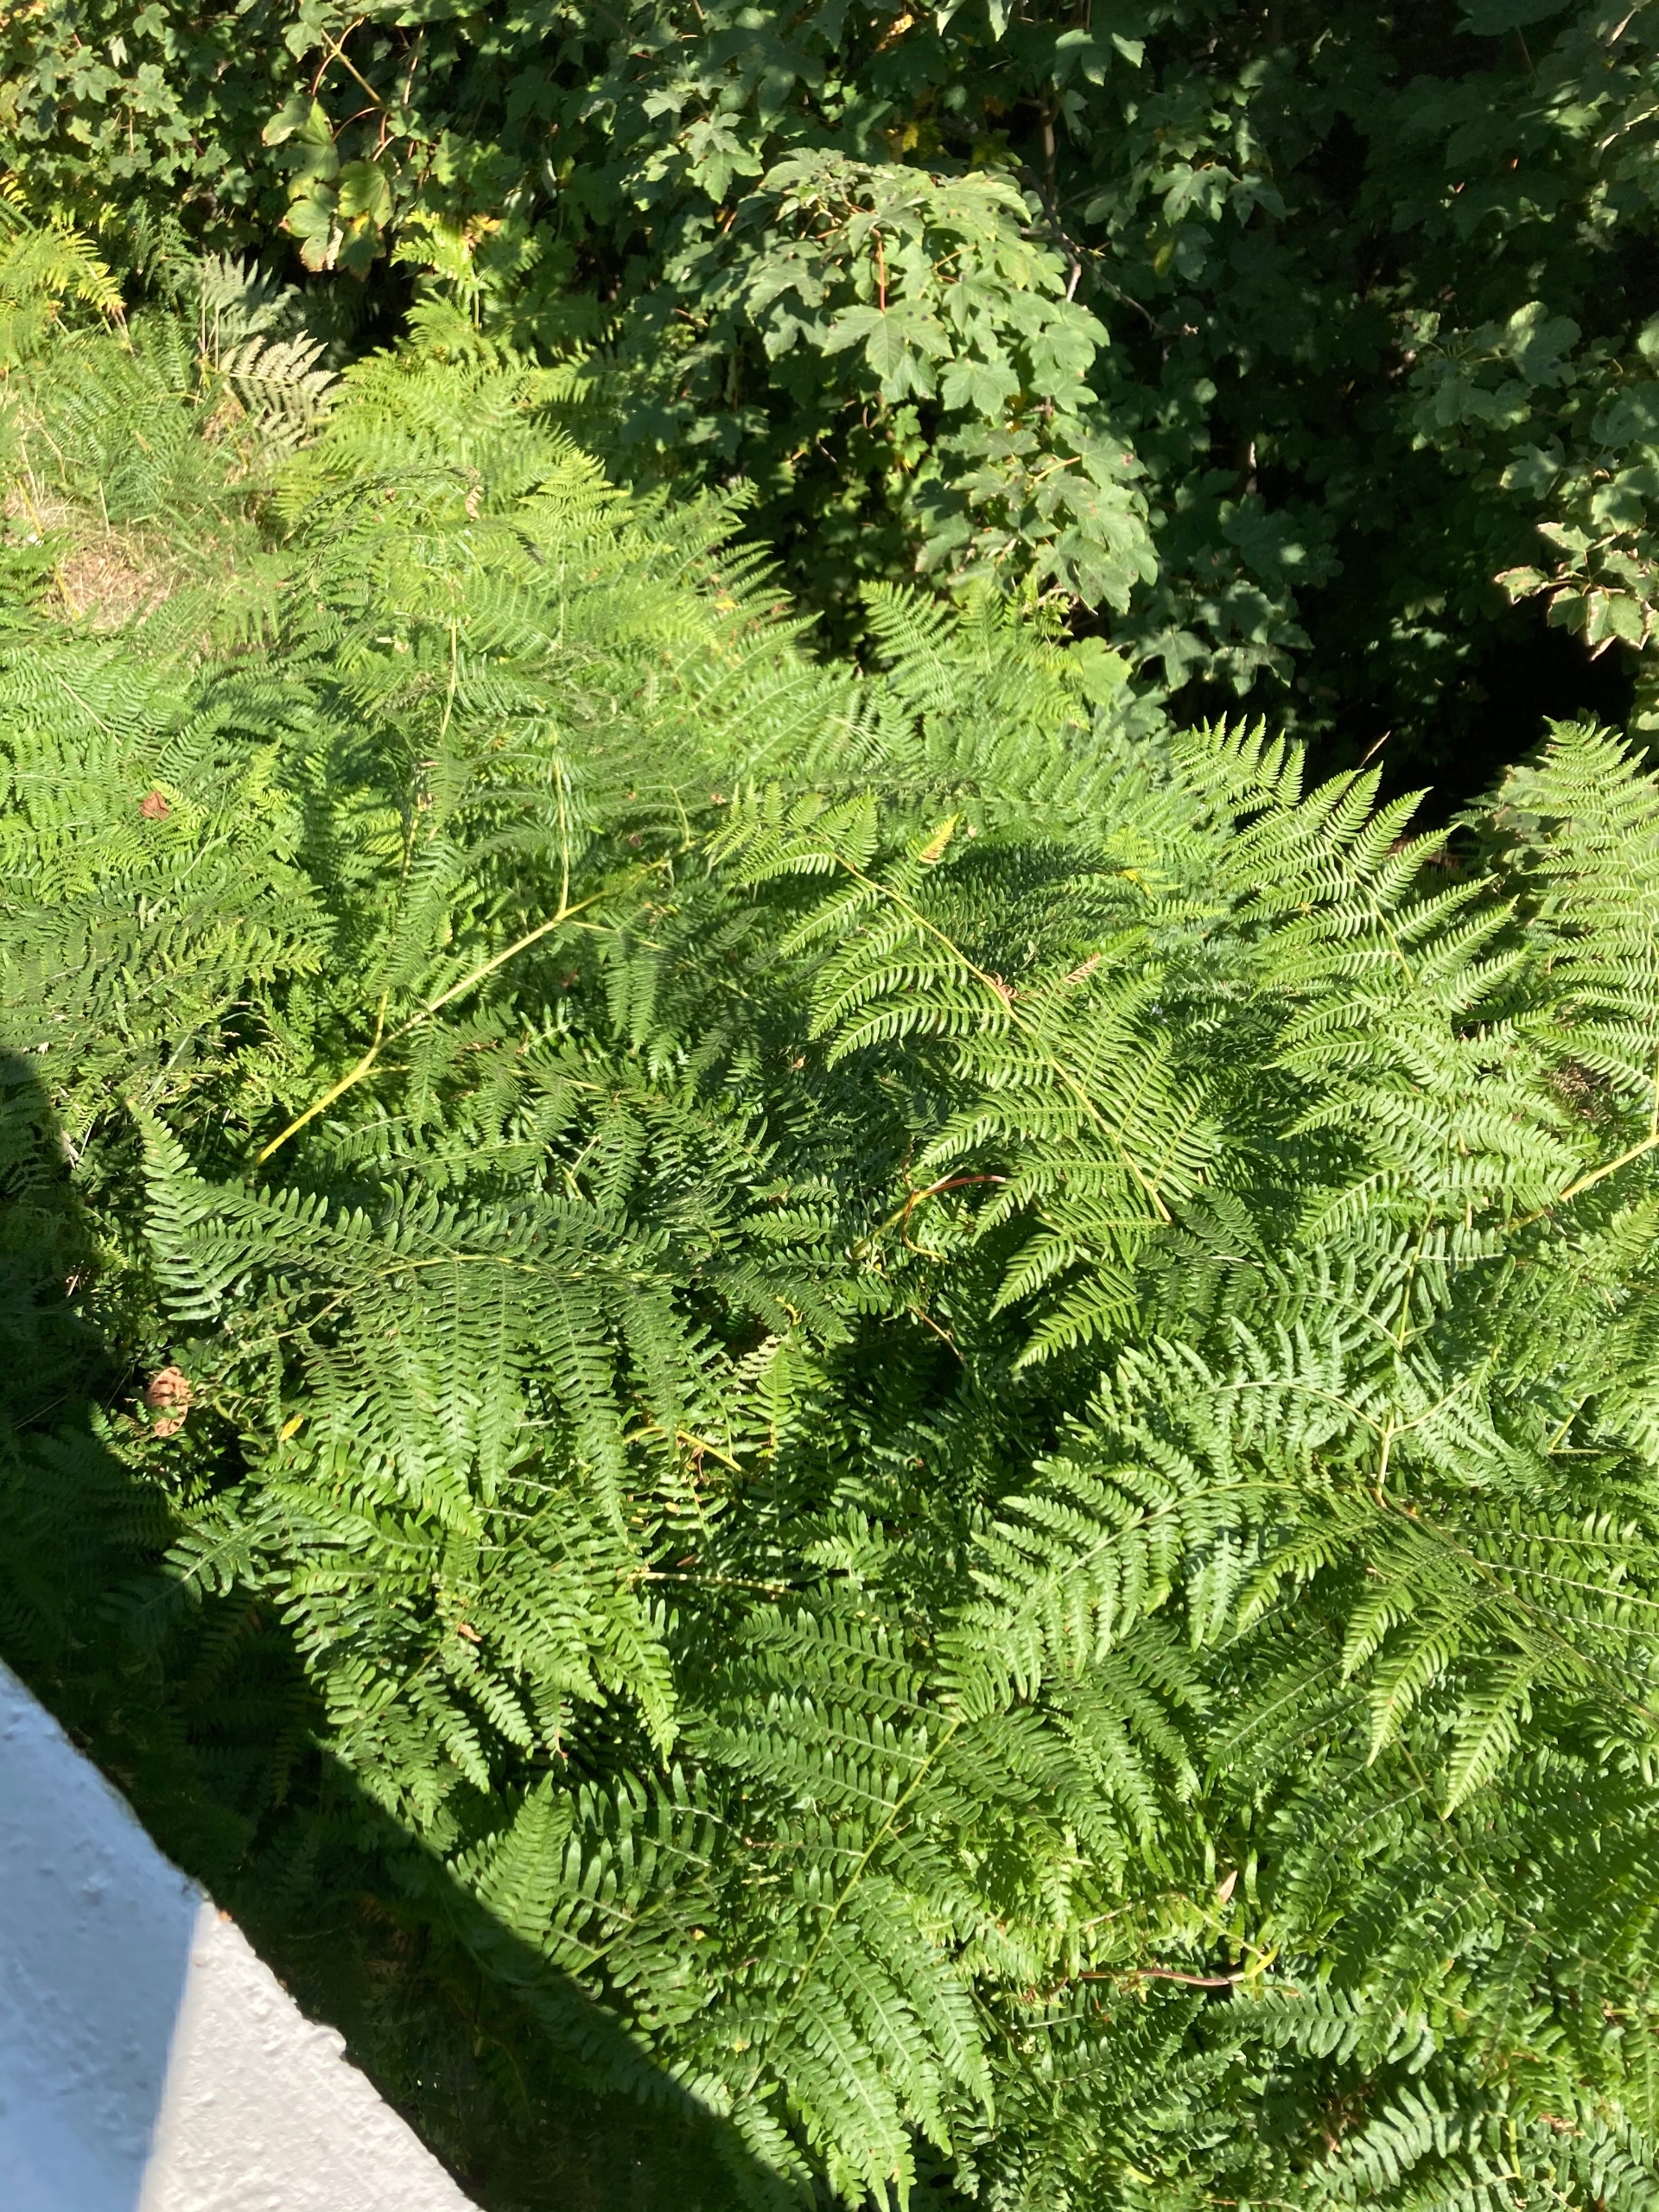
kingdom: Plantae
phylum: Tracheophyta
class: Polypodiopsida
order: Polypodiales
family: Dennstaedtiaceae
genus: Pteridium
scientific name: Pteridium aquilinum
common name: Ørnebregne
